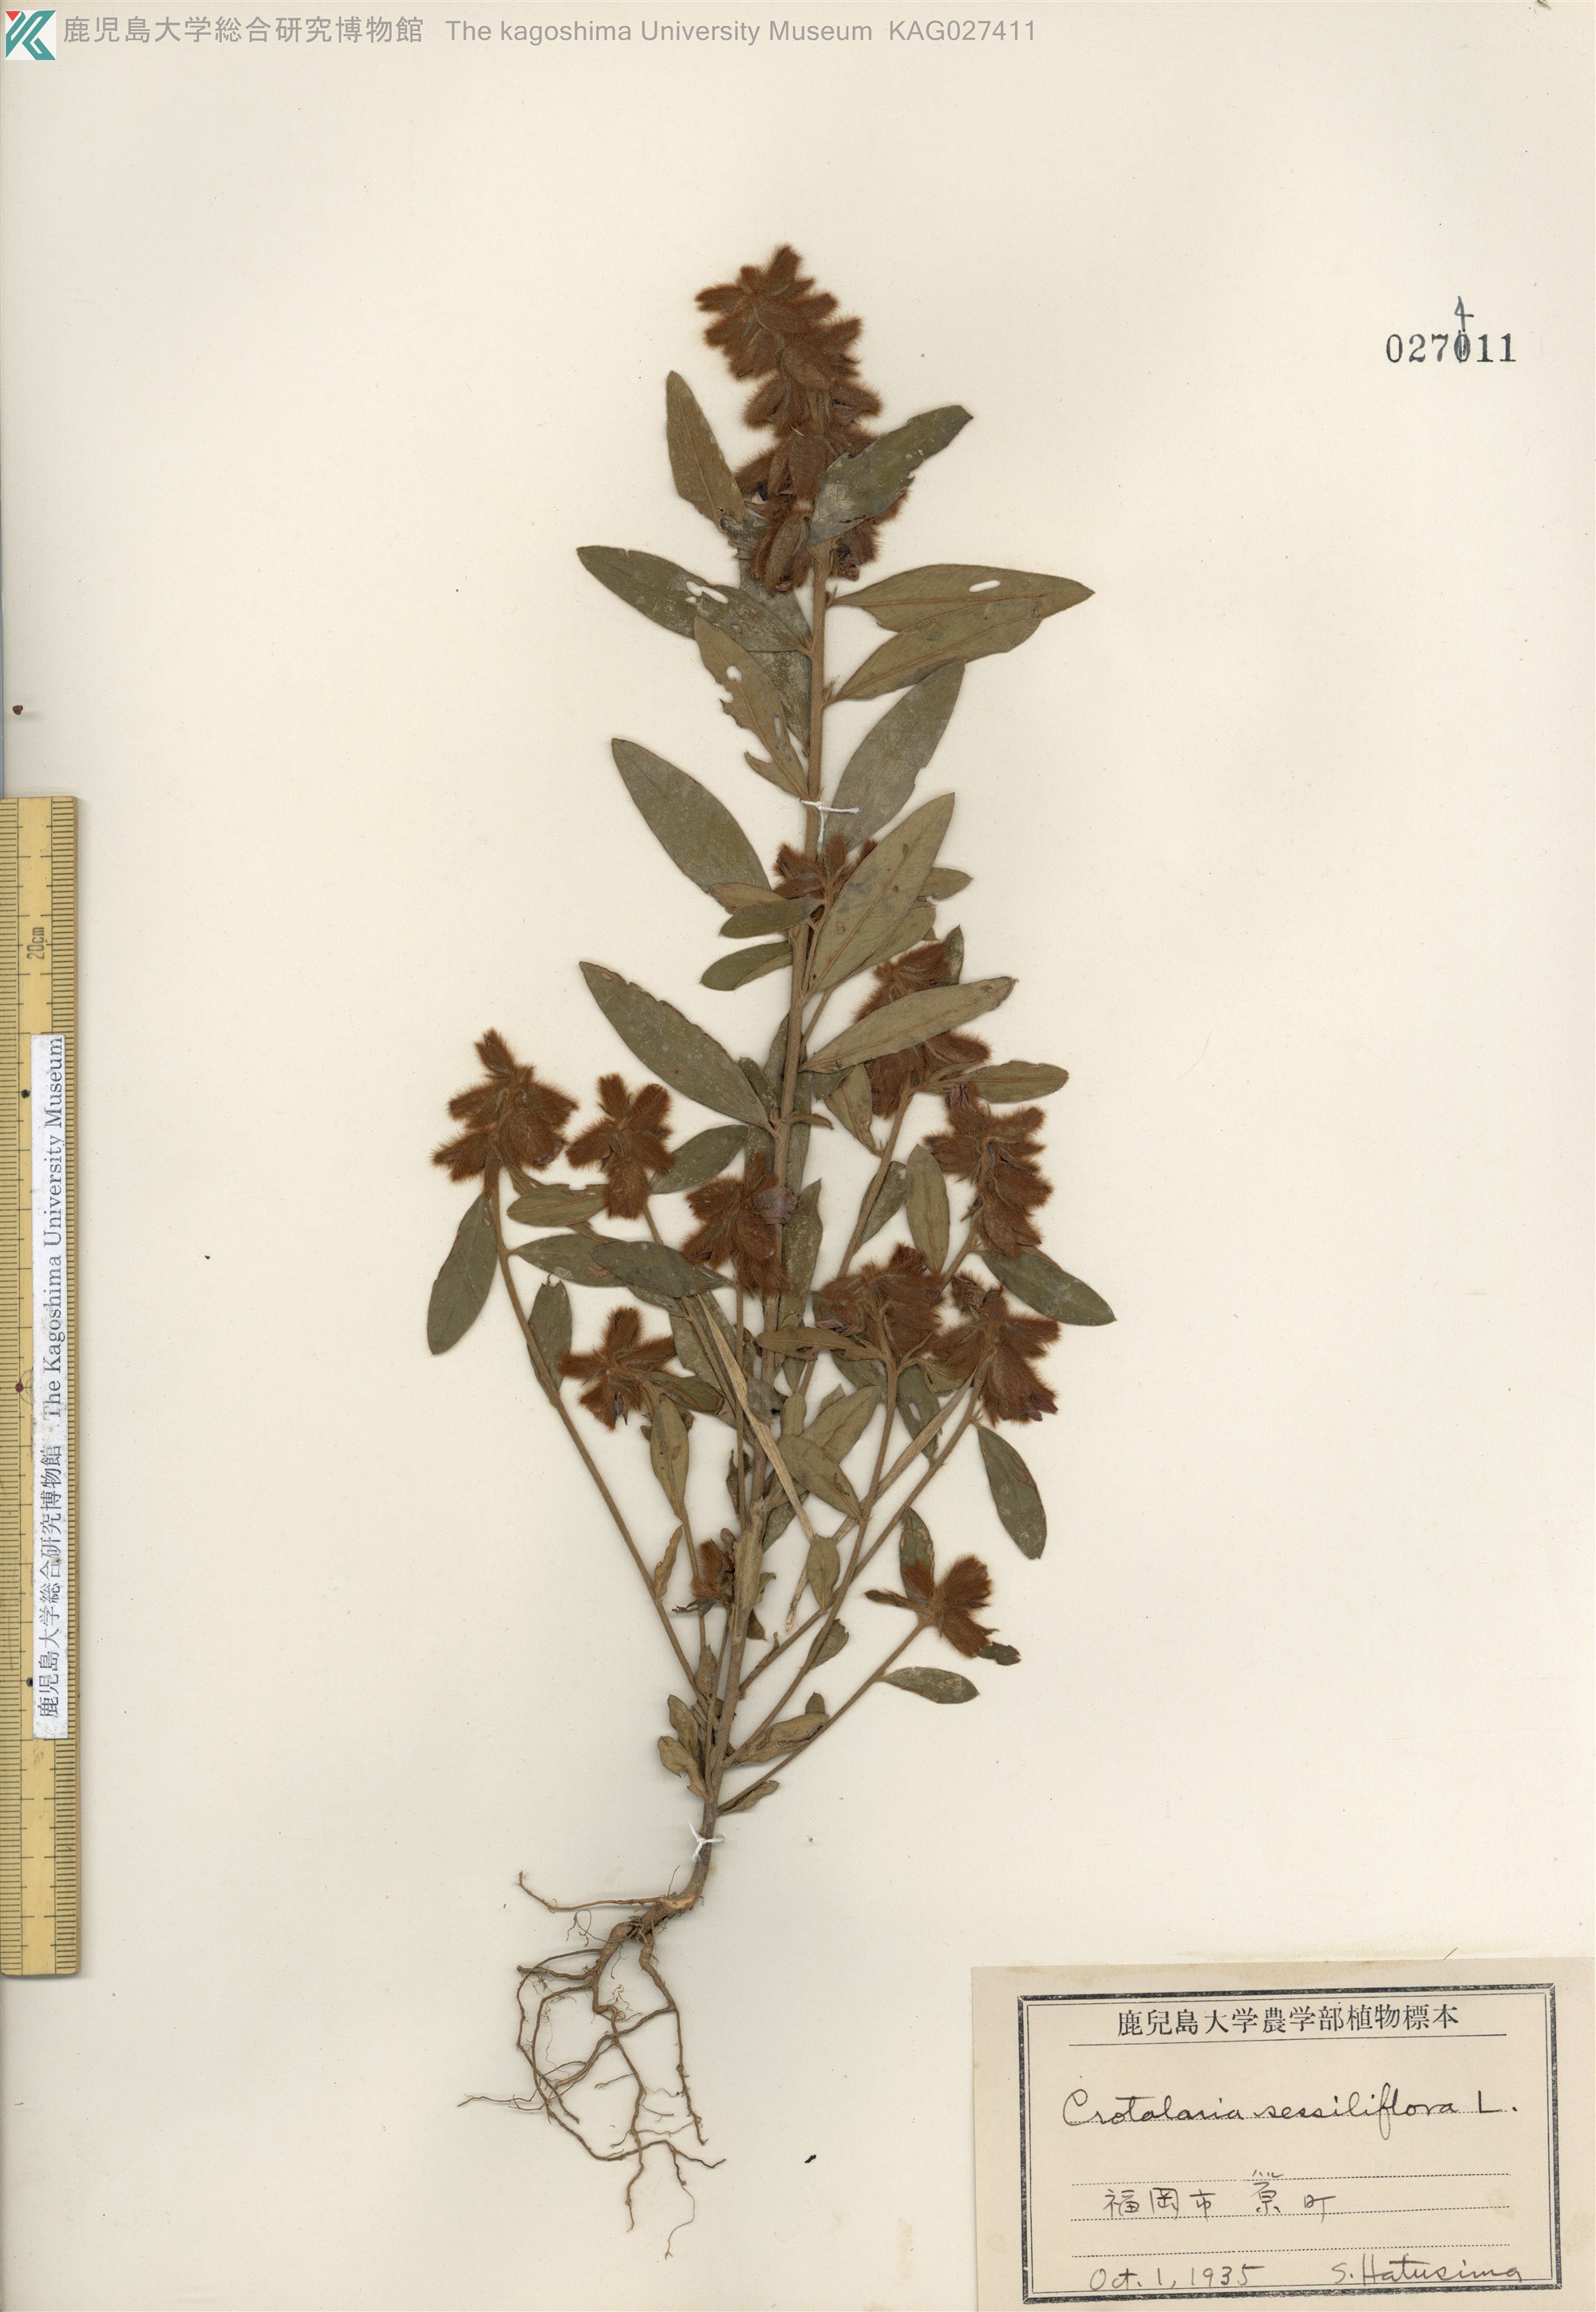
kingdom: Plantae
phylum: Tracheophyta
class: Magnoliopsida
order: Fabales
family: Fabaceae
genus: Crotalaria
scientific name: Crotalaria sessiliflora
